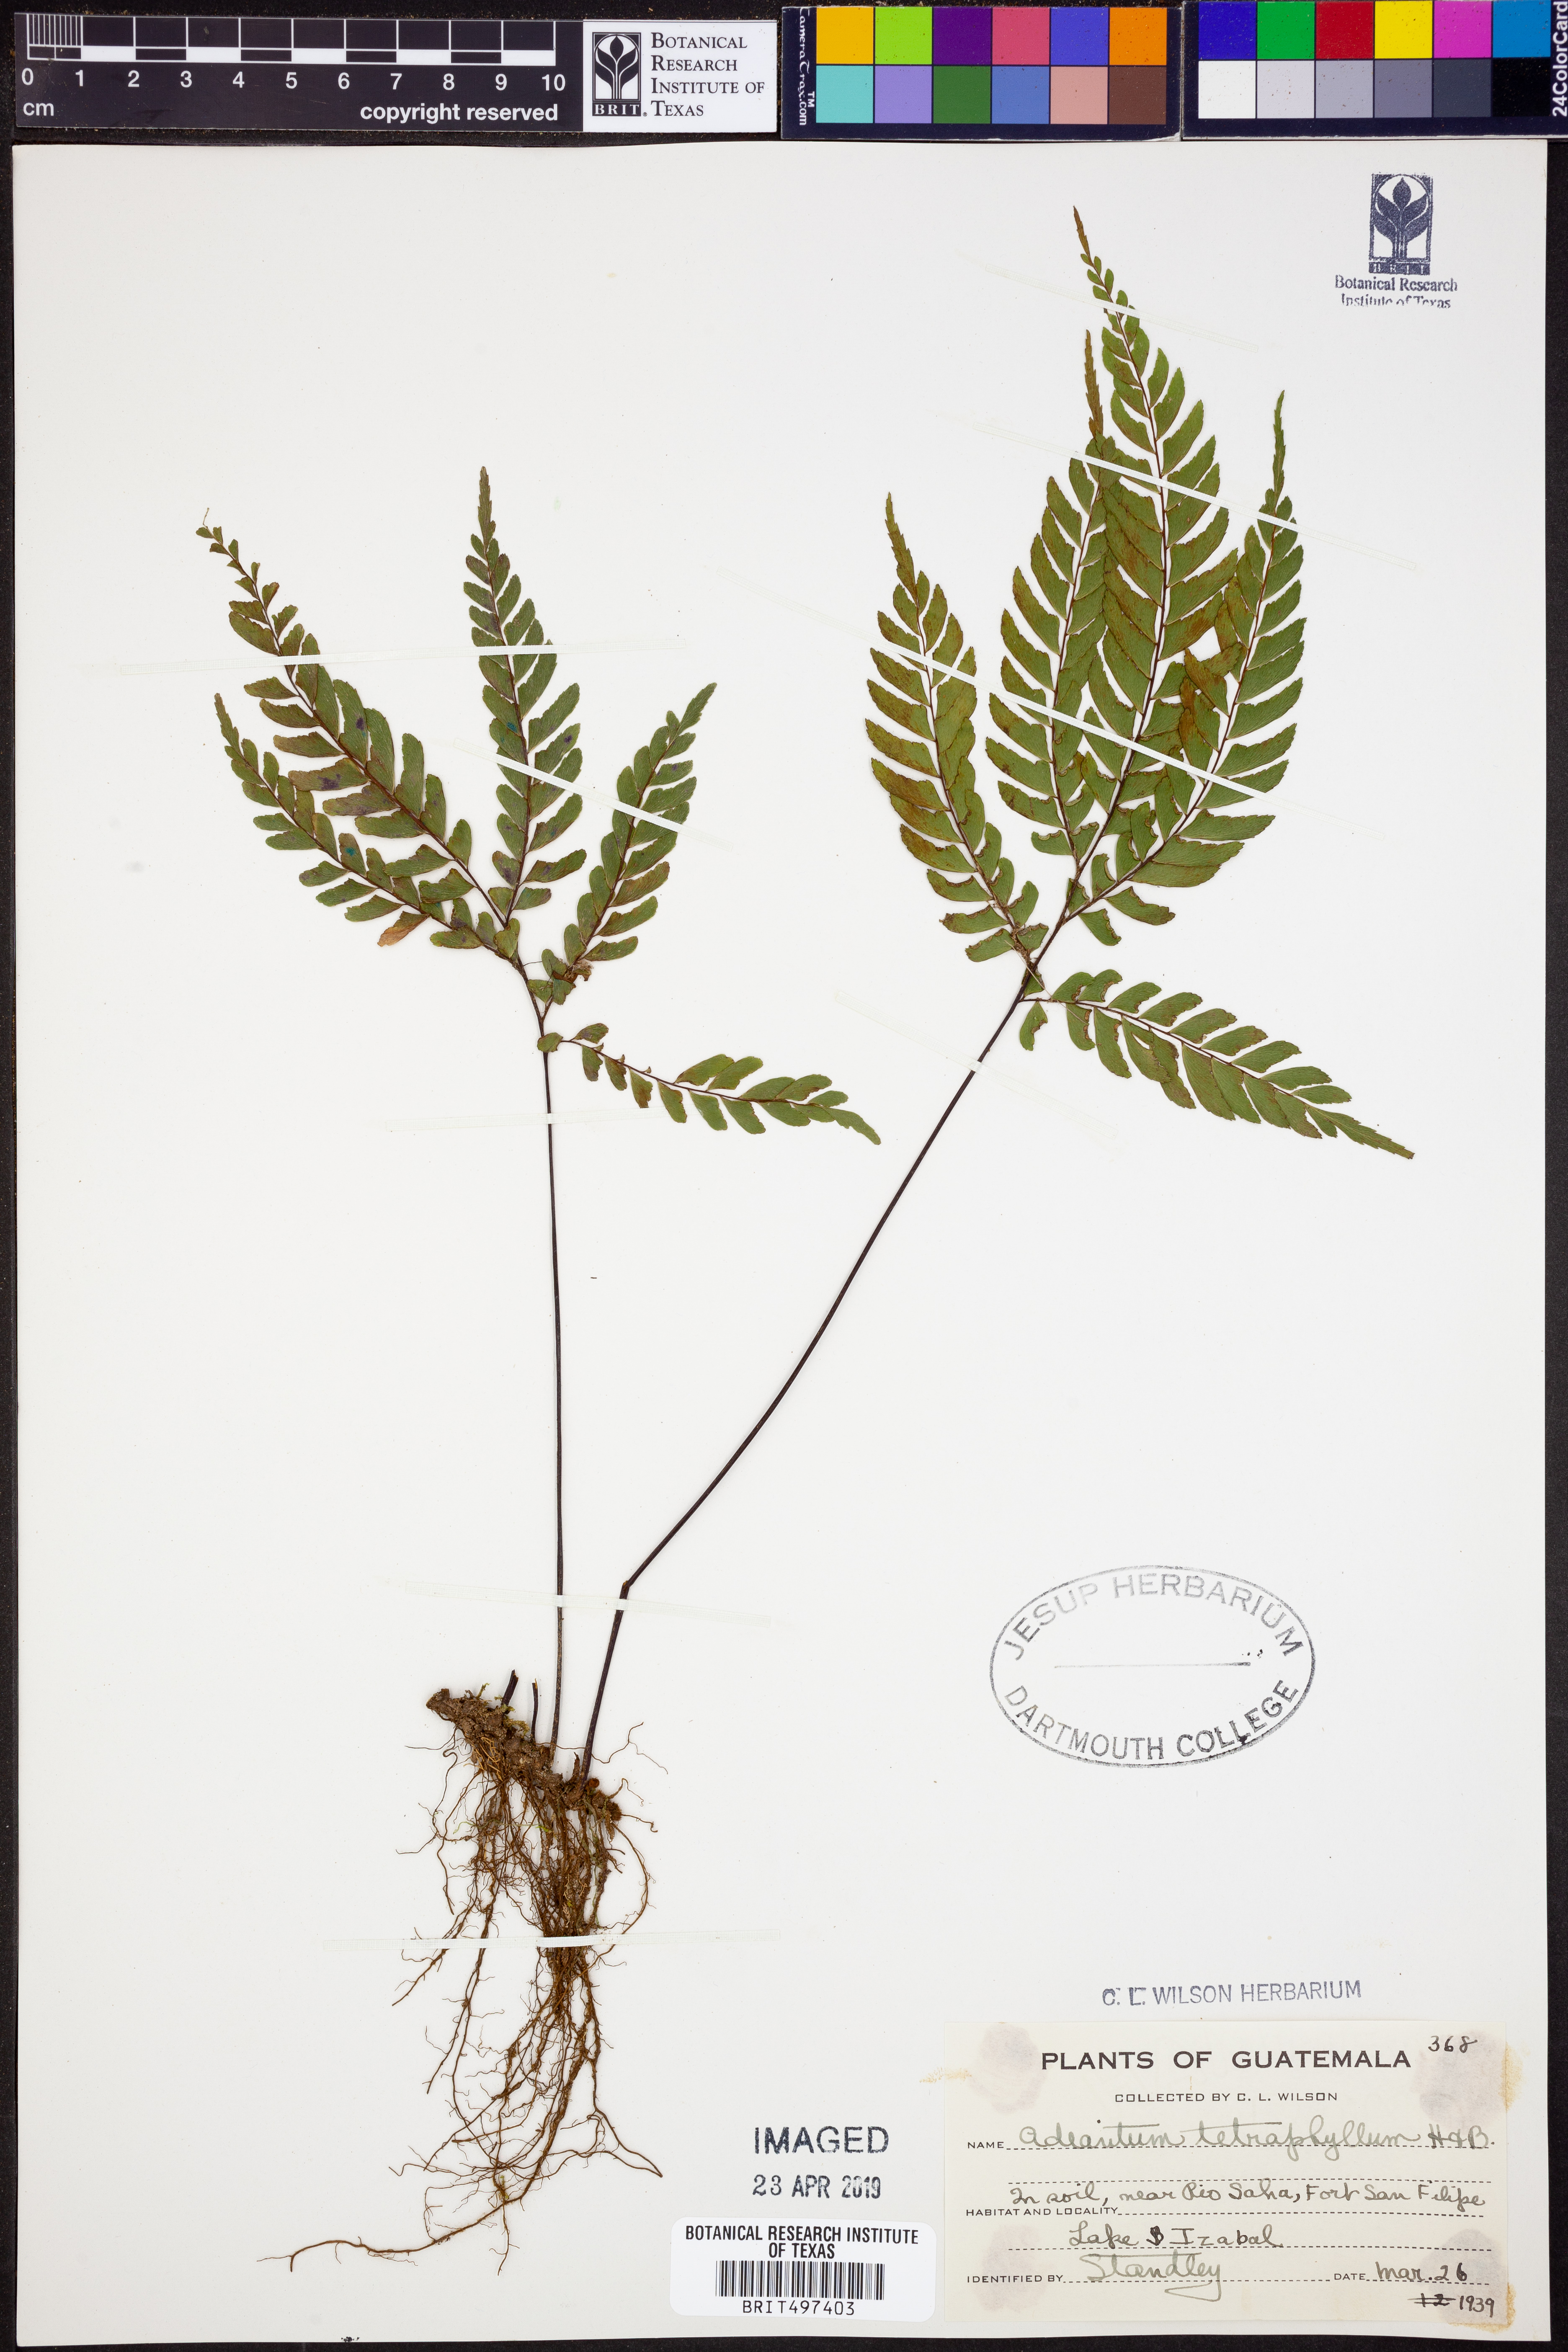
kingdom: Plantae
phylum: Tracheophyta
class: Polypodiopsida
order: Polypodiales
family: Pteridaceae
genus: Adiantum
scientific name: Adiantum tetraphyllum
